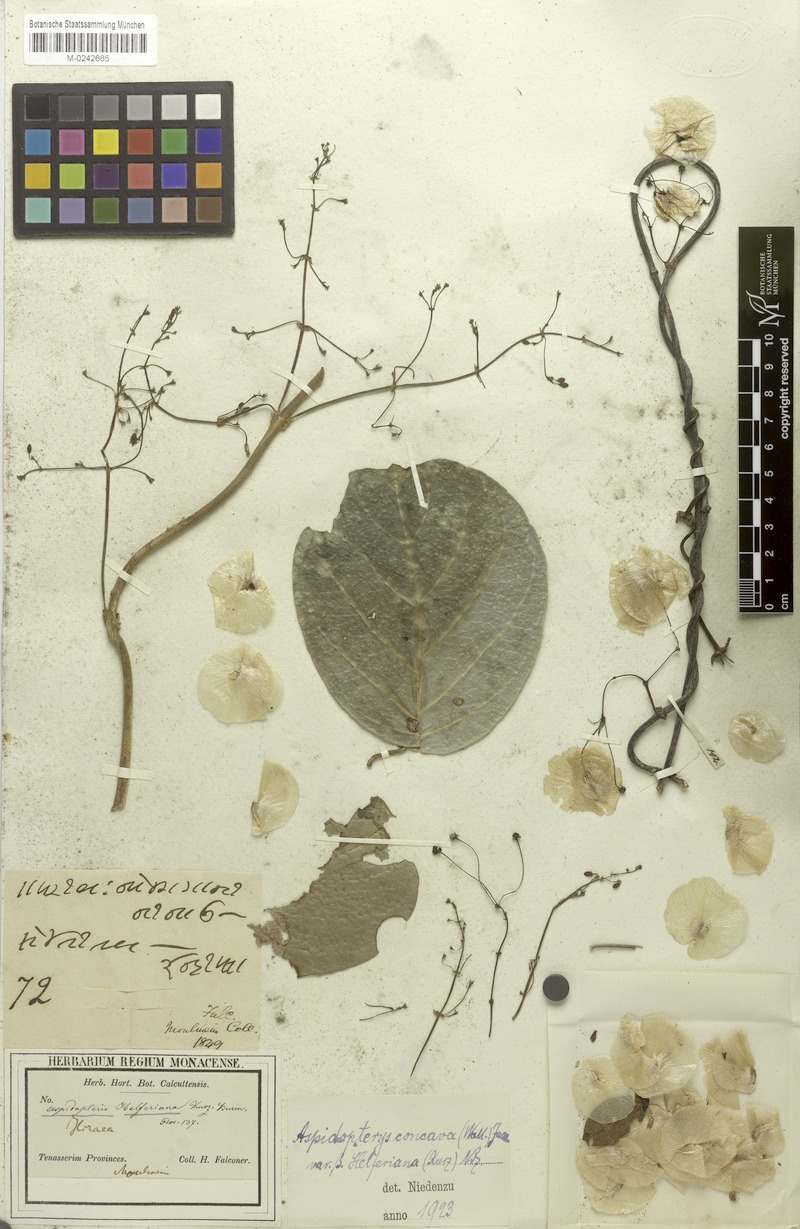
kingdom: Plantae
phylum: Tracheophyta
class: Magnoliopsida
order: Malpighiales
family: Malpighiaceae
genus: Aspidopterys
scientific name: Aspidopterys tomentosa
